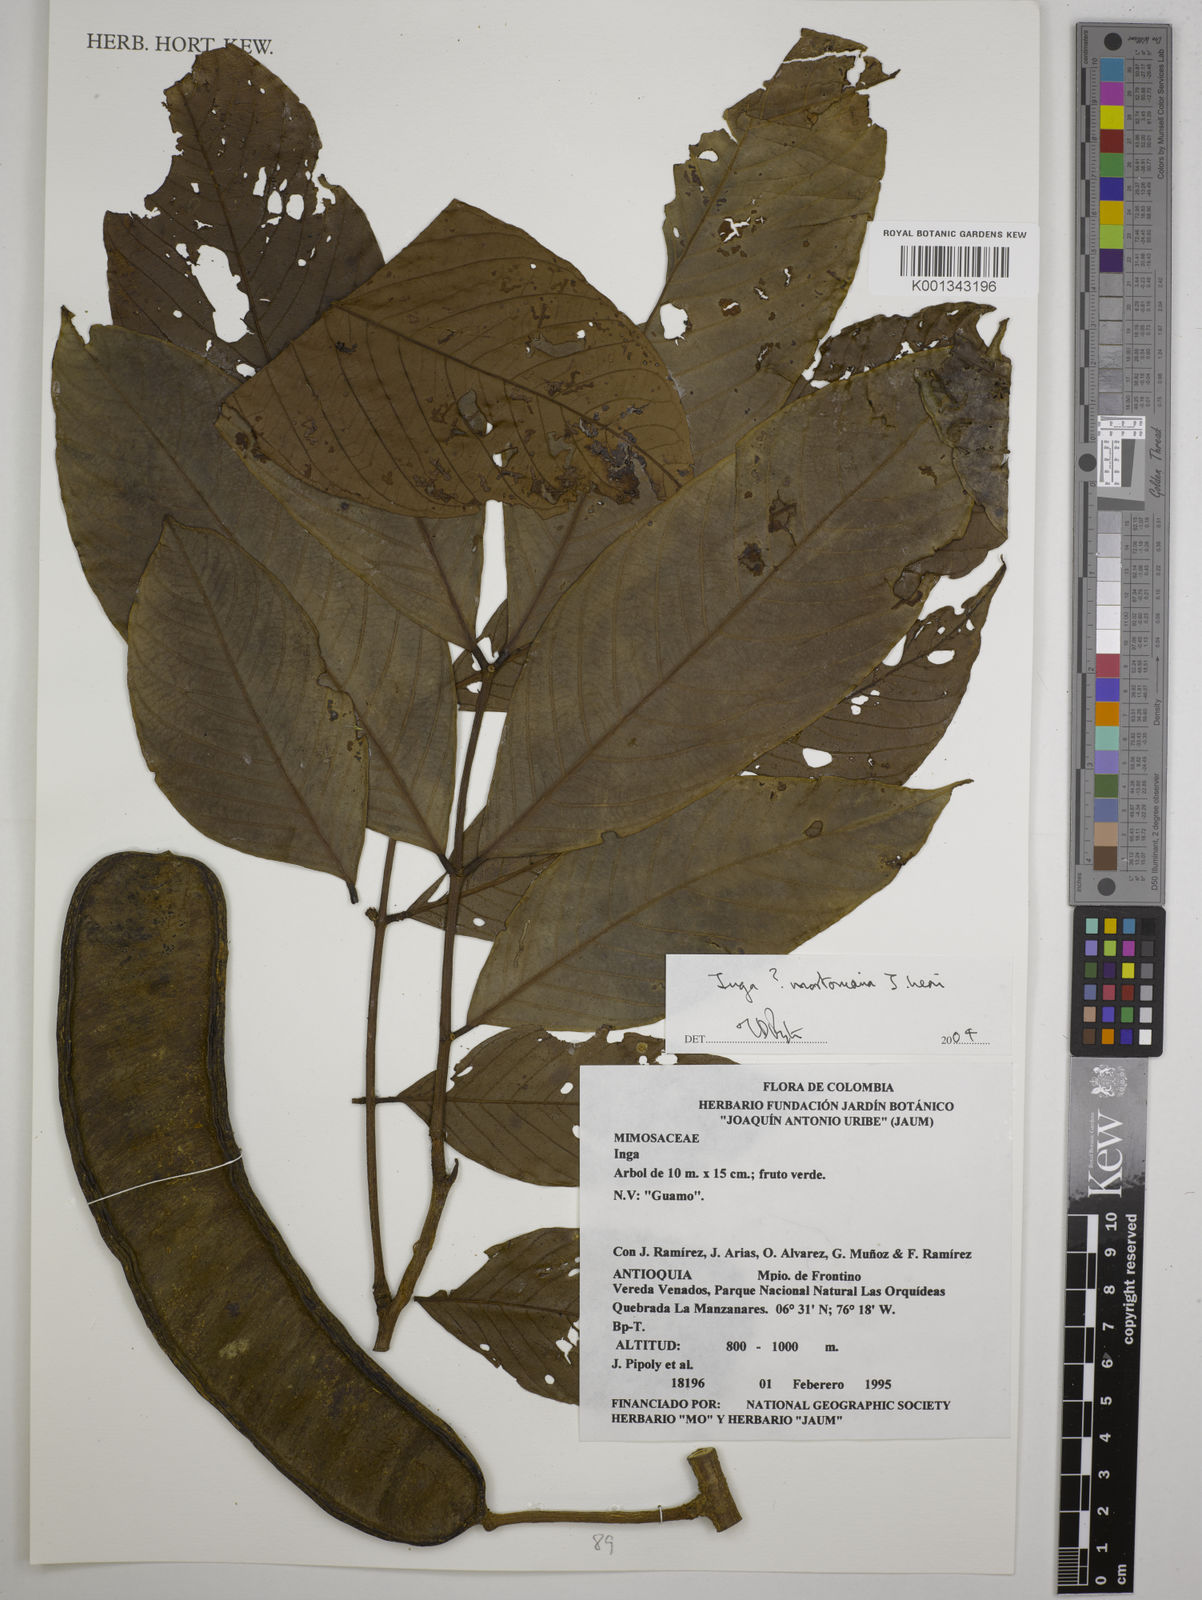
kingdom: Plantae
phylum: Tracheophyta
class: Magnoliopsida
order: Fabales
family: Fabaceae
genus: Inga
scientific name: Inga mortoniana
